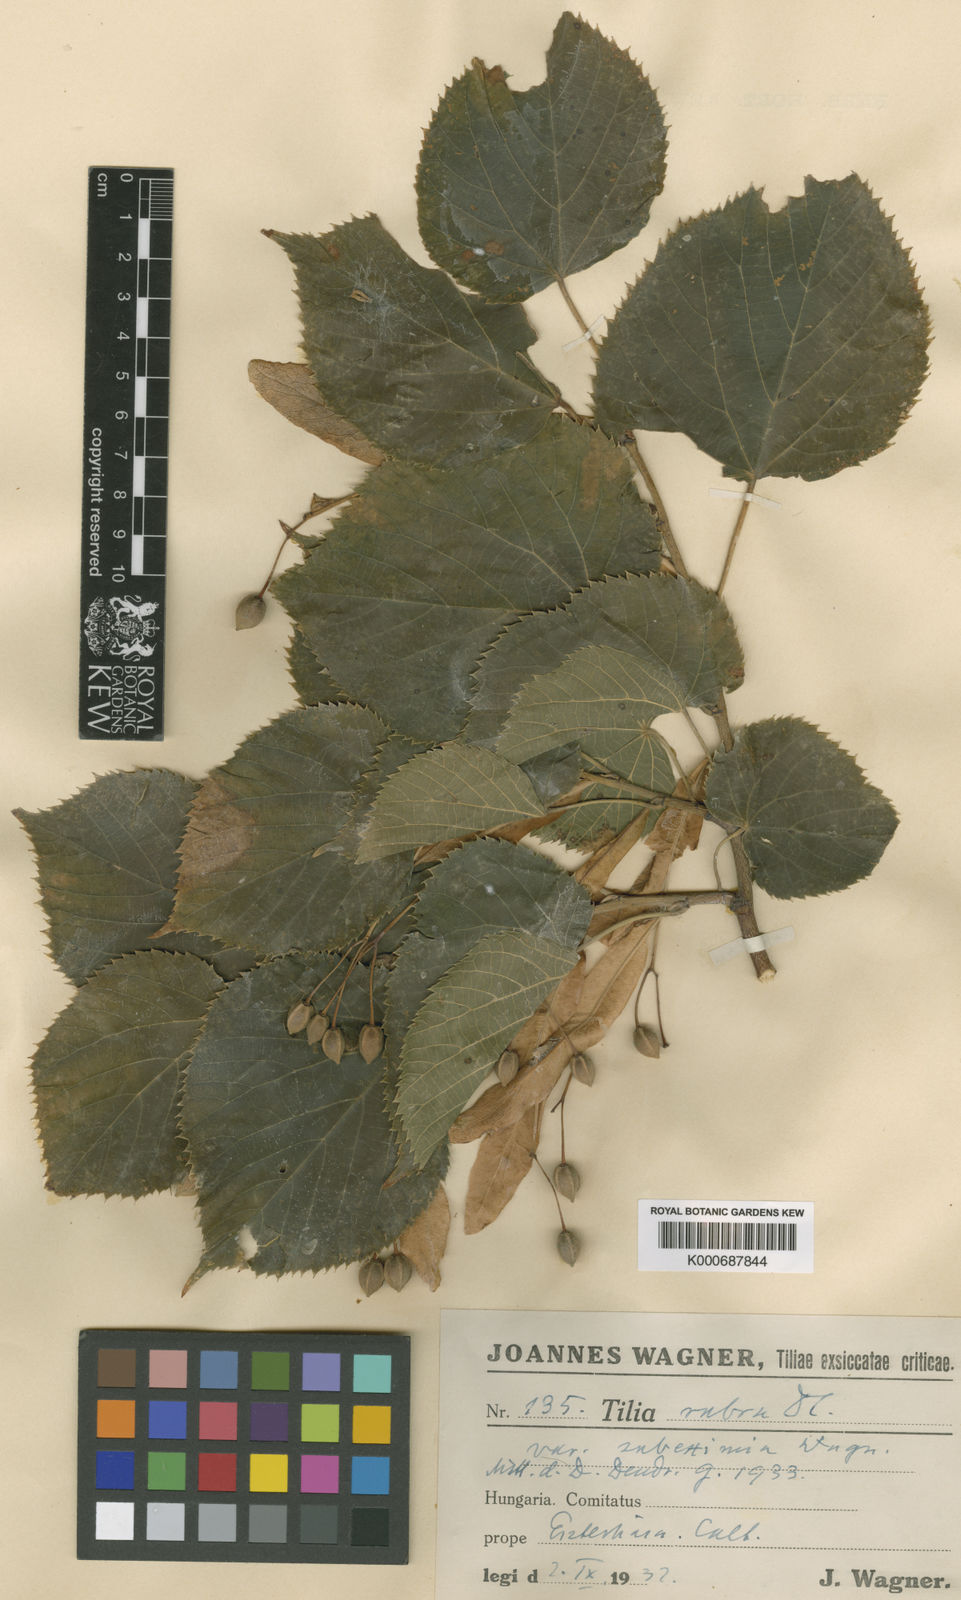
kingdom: Plantae
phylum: Tracheophyta
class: Magnoliopsida
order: Malvales
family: Malvaceae
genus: Tilia
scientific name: Tilia platyphyllos
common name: Large-leaved lime
